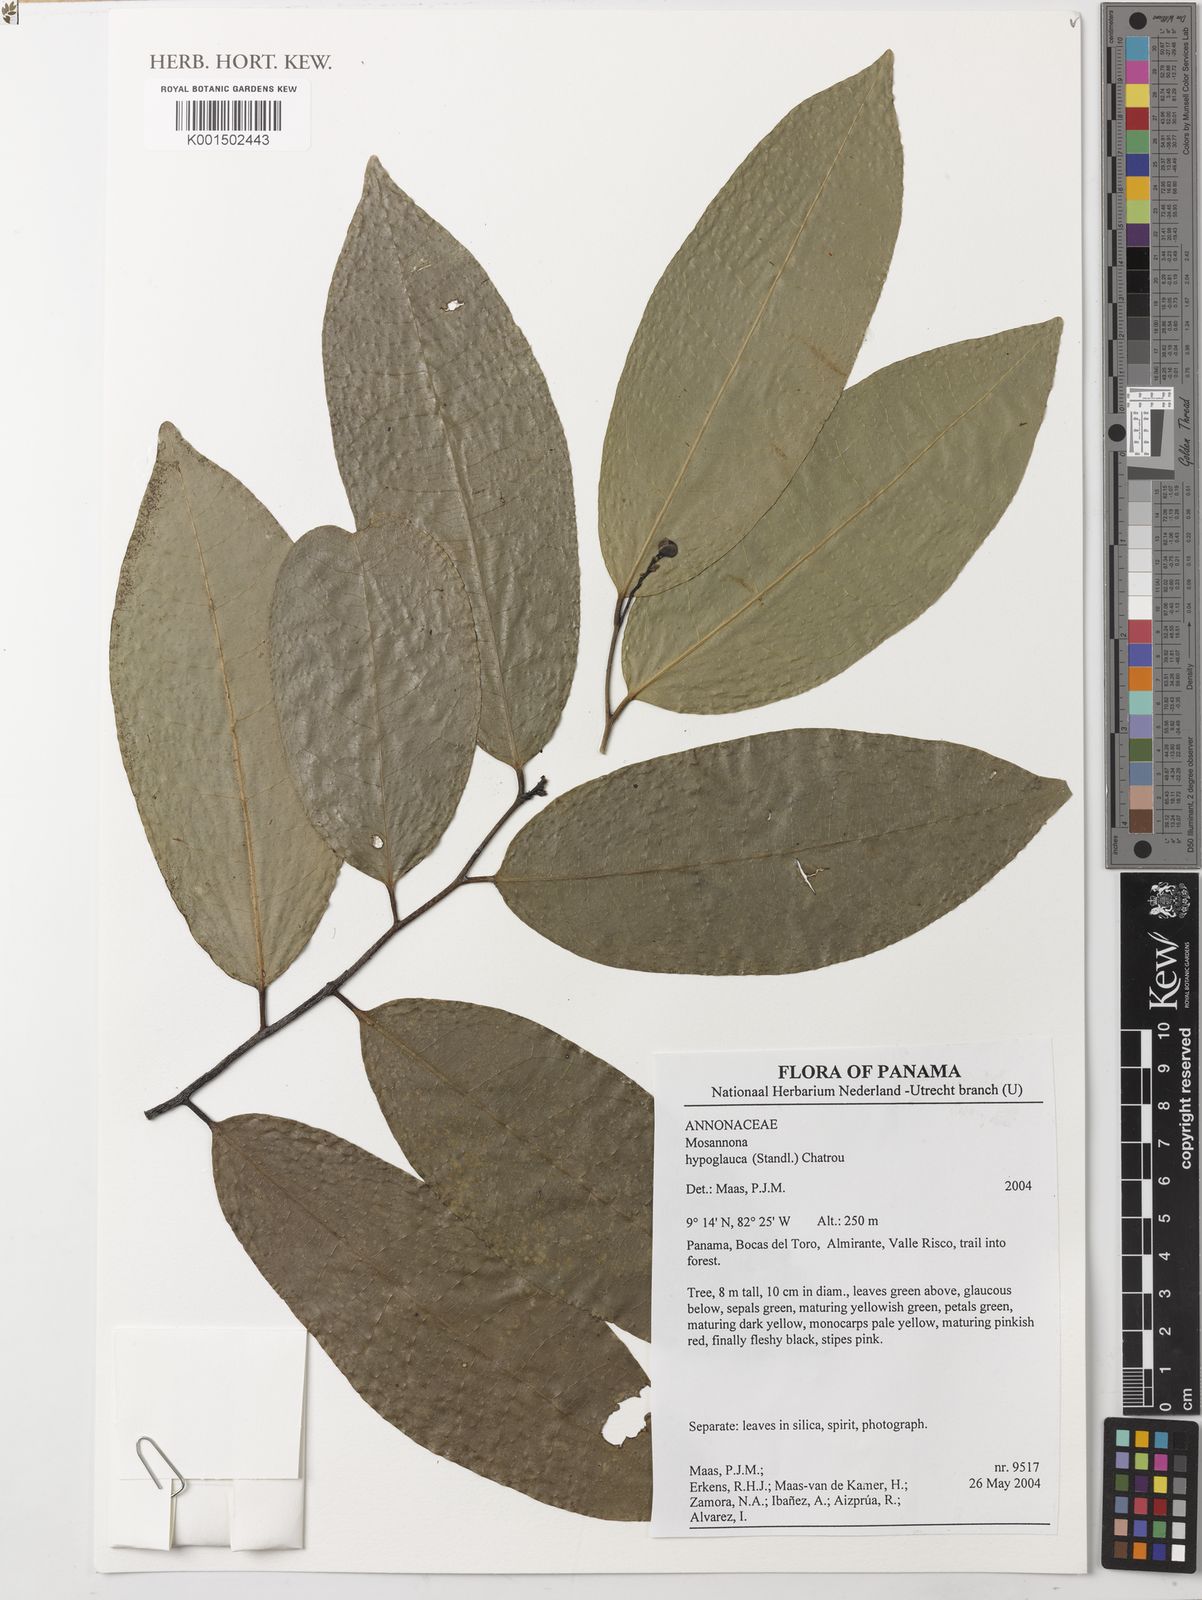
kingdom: Plantae
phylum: Tracheophyta
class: Magnoliopsida
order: Magnoliales
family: Annonaceae
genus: Mosannona
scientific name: Mosannona hypoglauca
